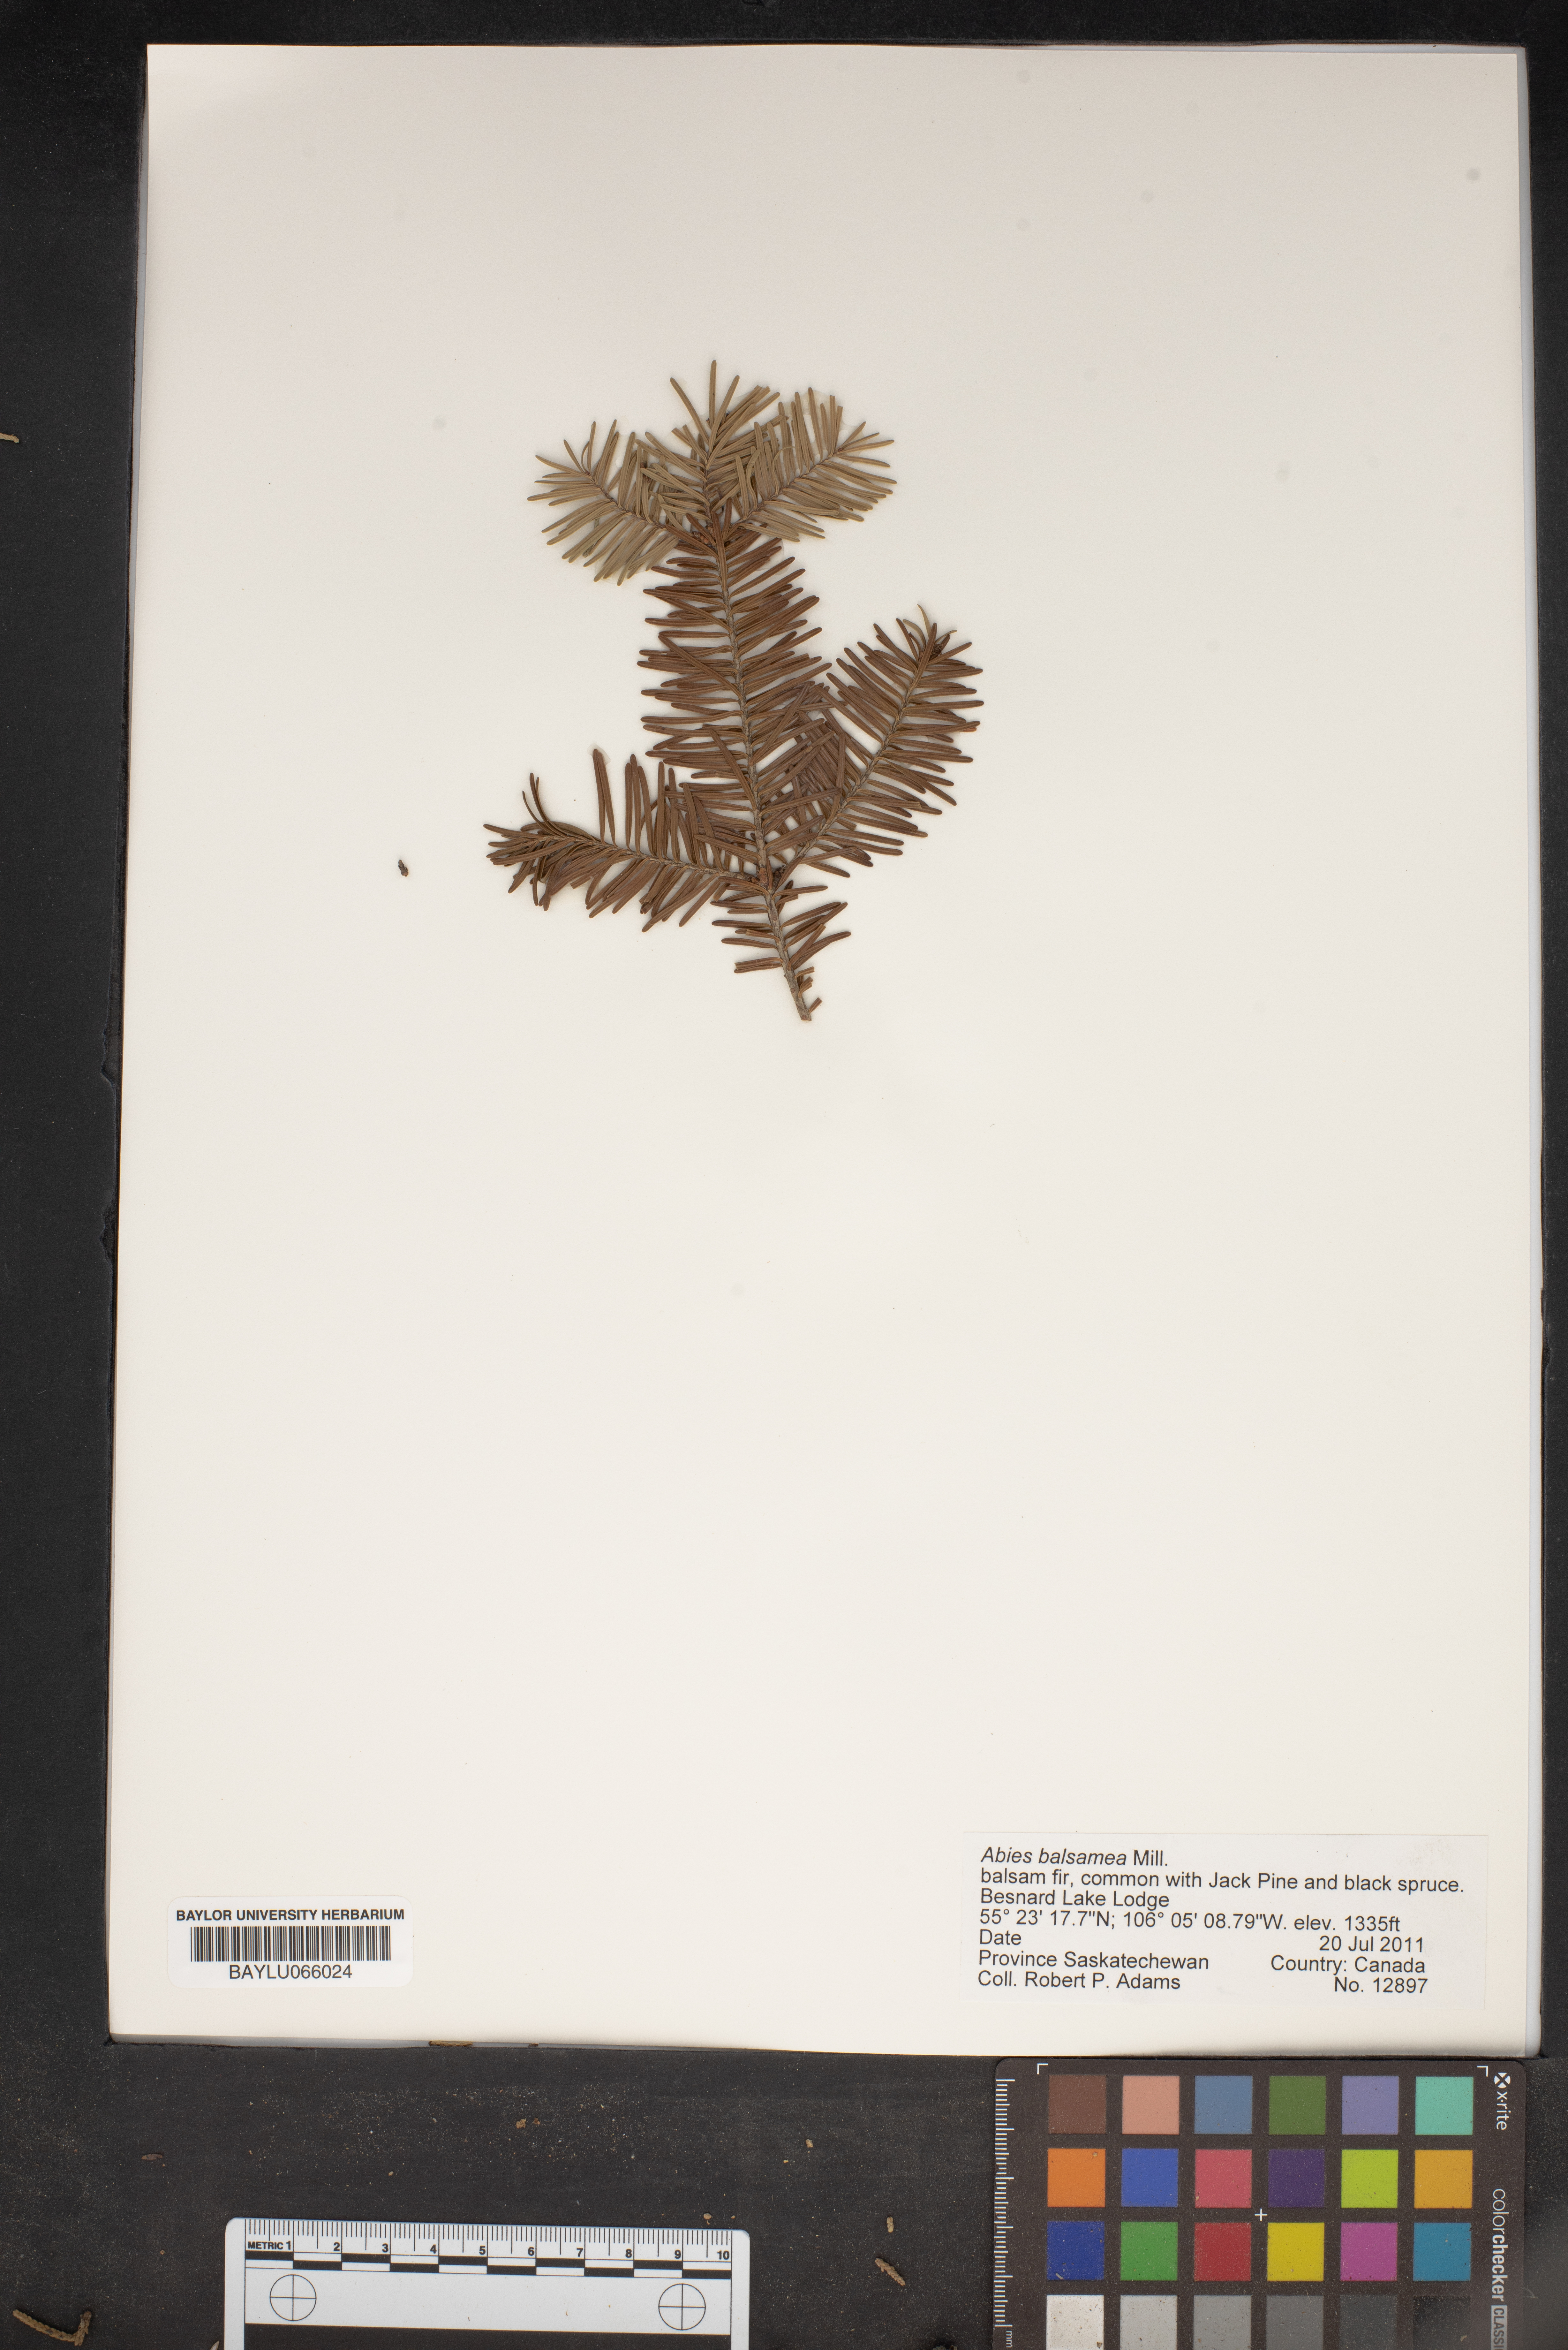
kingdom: Plantae
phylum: Tracheophyta
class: Pinopsida
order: Pinales
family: Pinaceae
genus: Abies
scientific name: Abies balsamea
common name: Balsam fir
